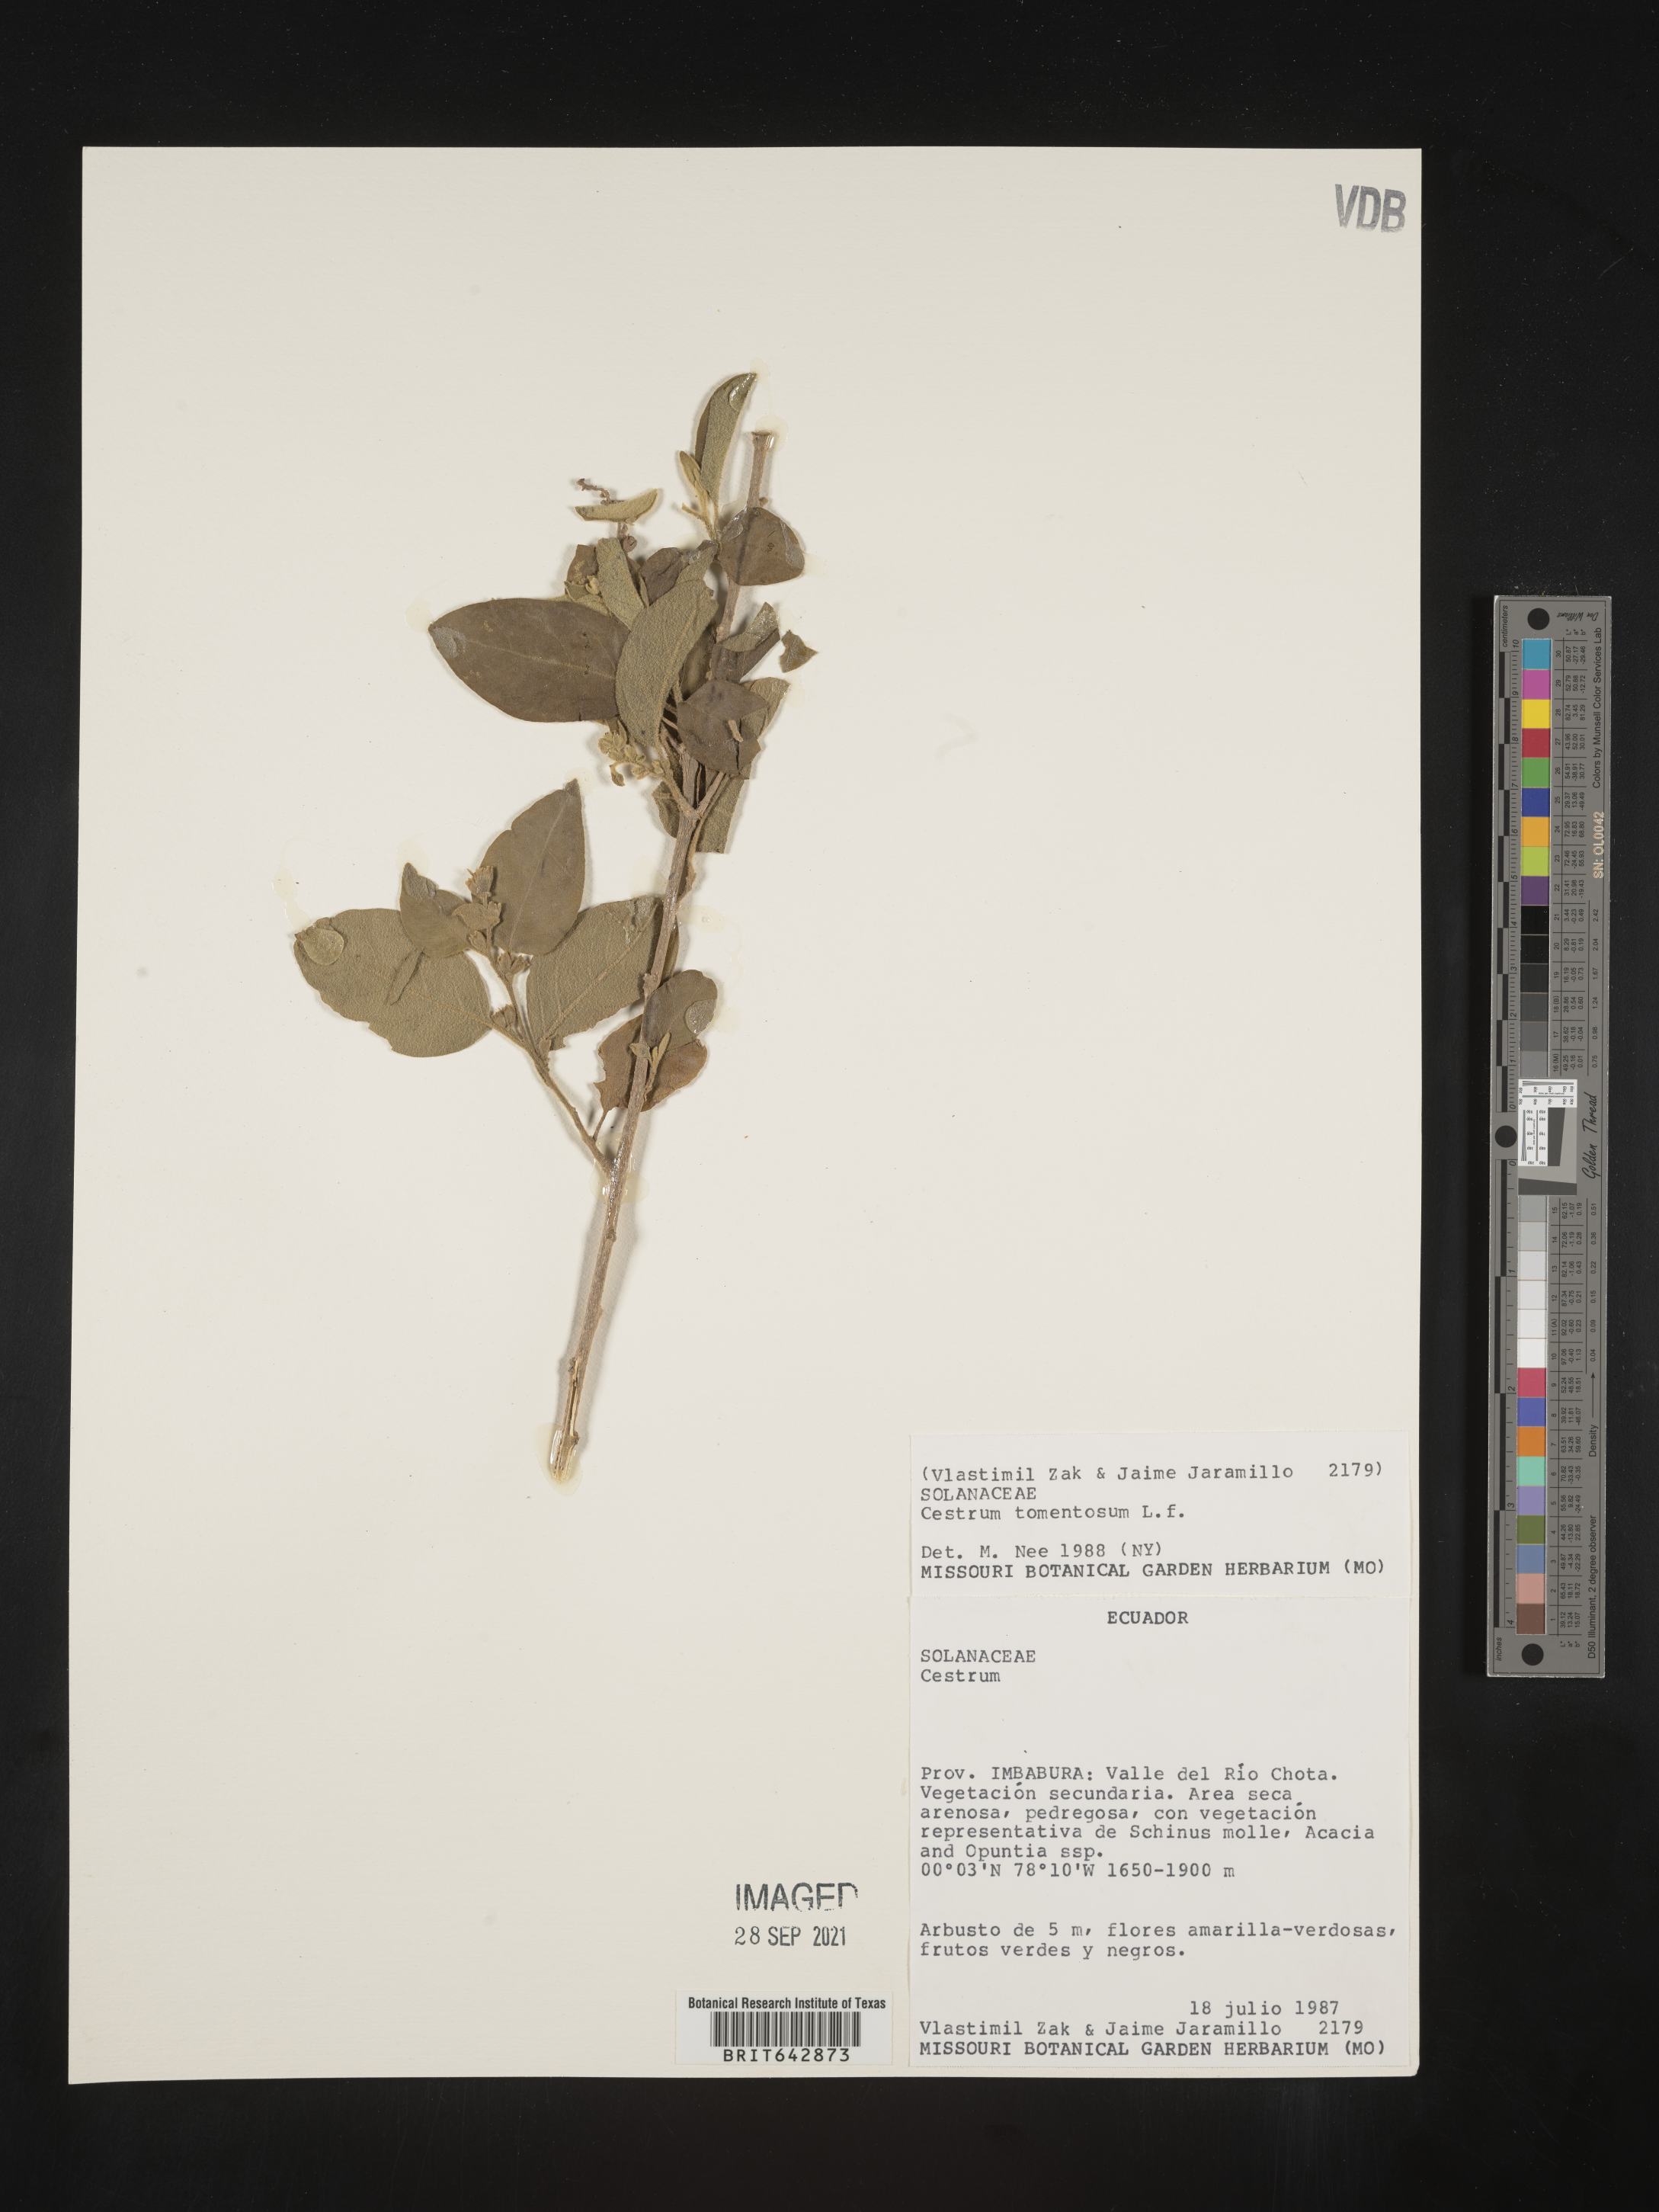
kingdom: Plantae
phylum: Tracheophyta
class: Magnoliopsida
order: Solanales
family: Solanaceae
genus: Cestrum
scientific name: Cestrum
